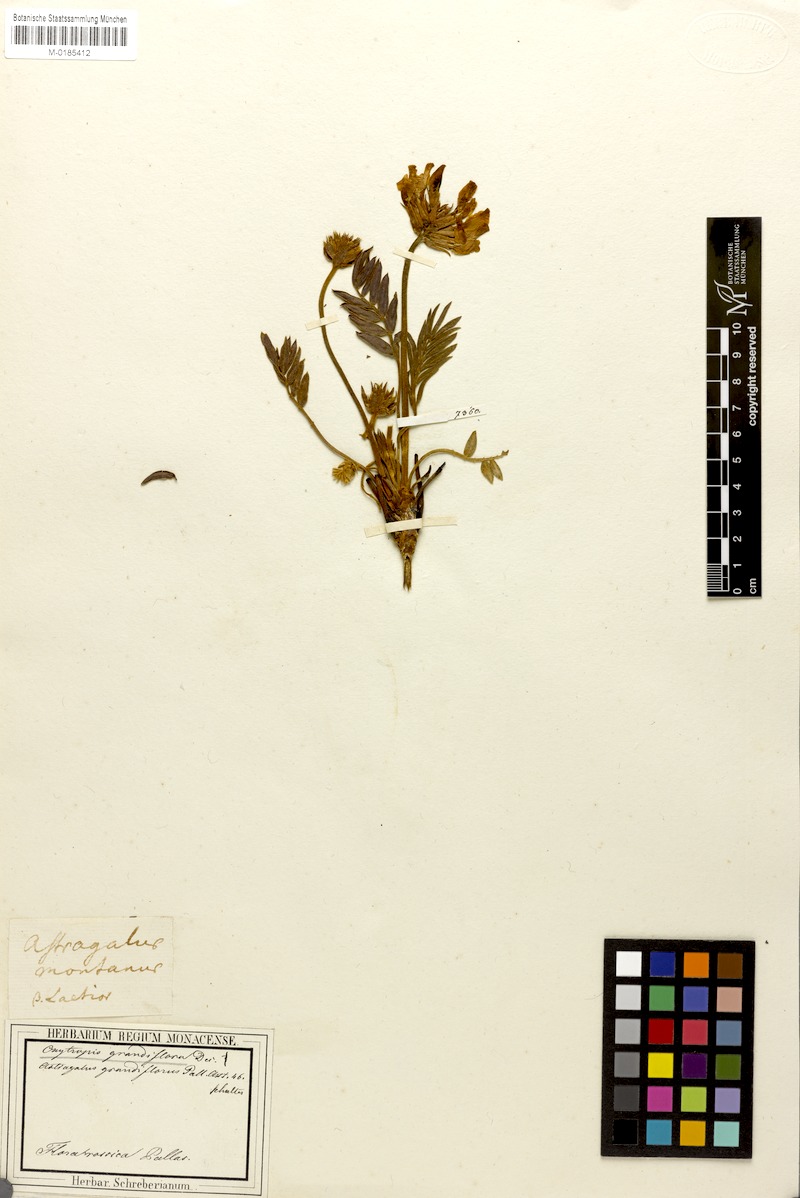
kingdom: Plantae
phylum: Tracheophyta
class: Magnoliopsida
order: Fabales
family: Fabaceae
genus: Oxytropis
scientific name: Oxytropis grandiflora
